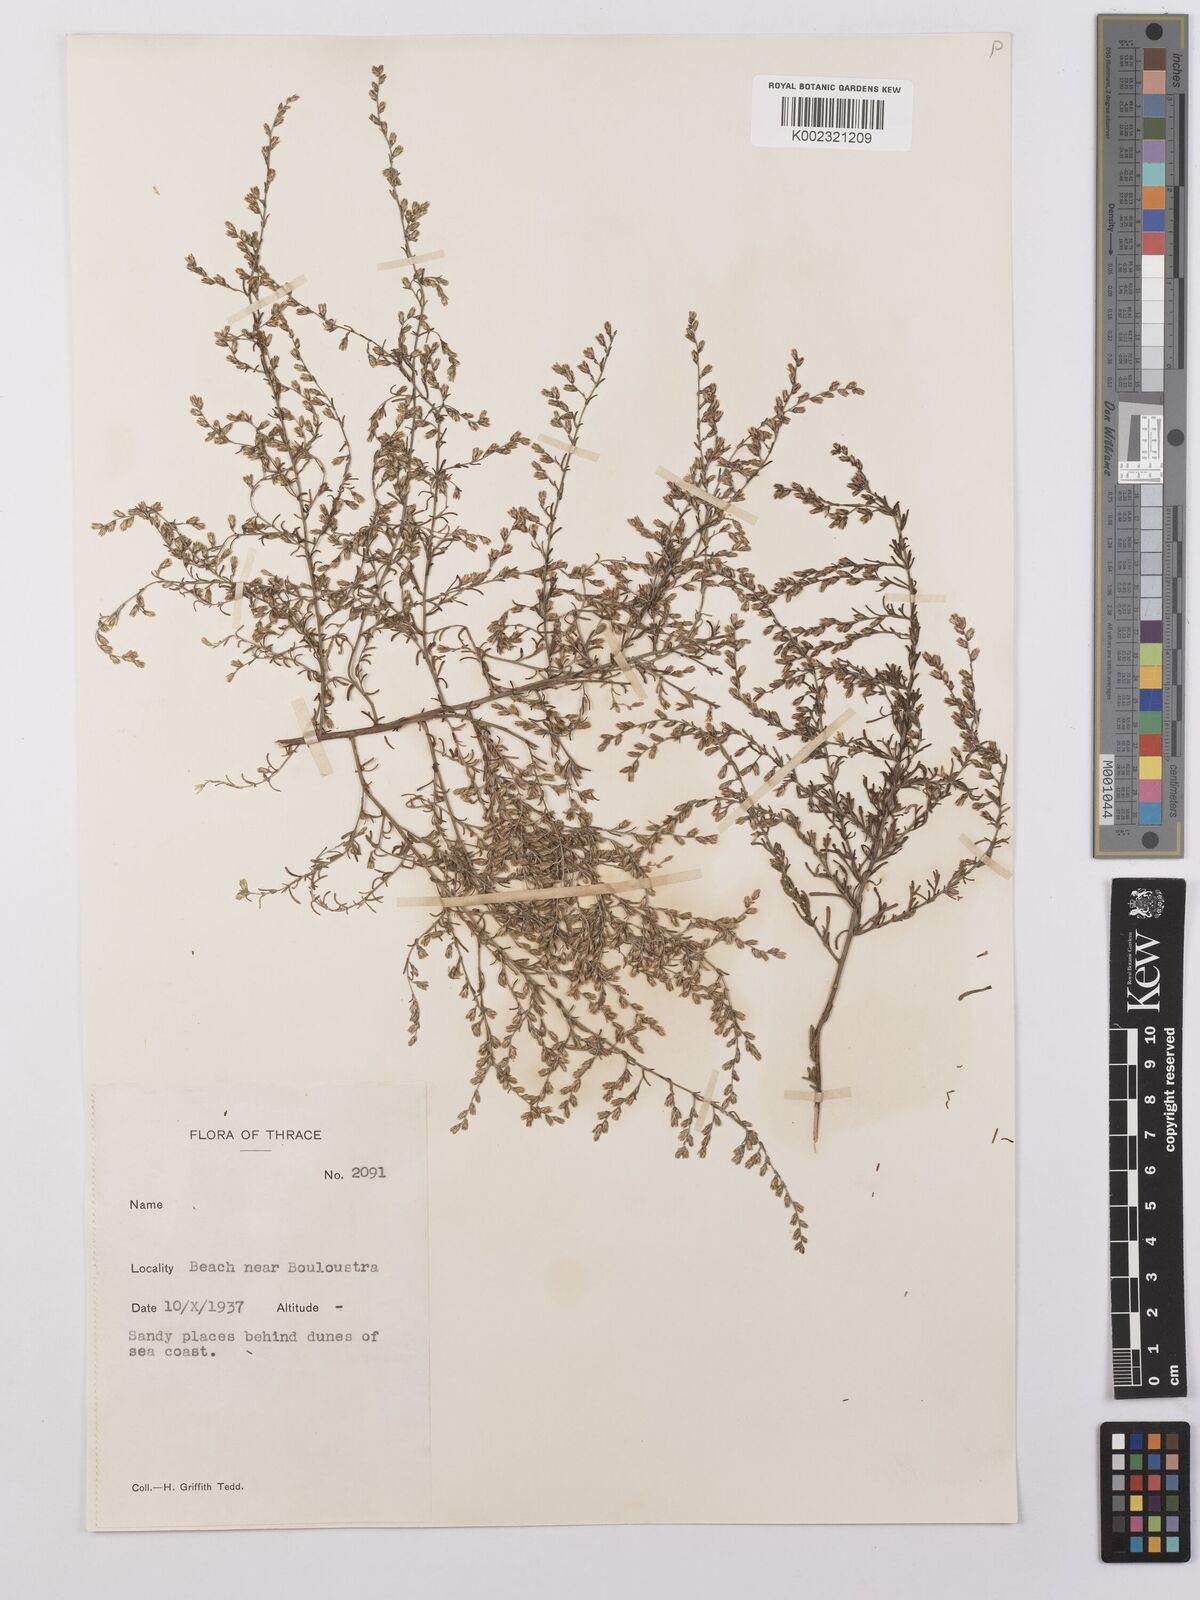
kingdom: Plantae
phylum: Tracheophyta
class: Magnoliopsida
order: Asterales
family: Asteraceae
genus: Artemisia
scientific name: Artemisia maritima
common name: Wormseed
